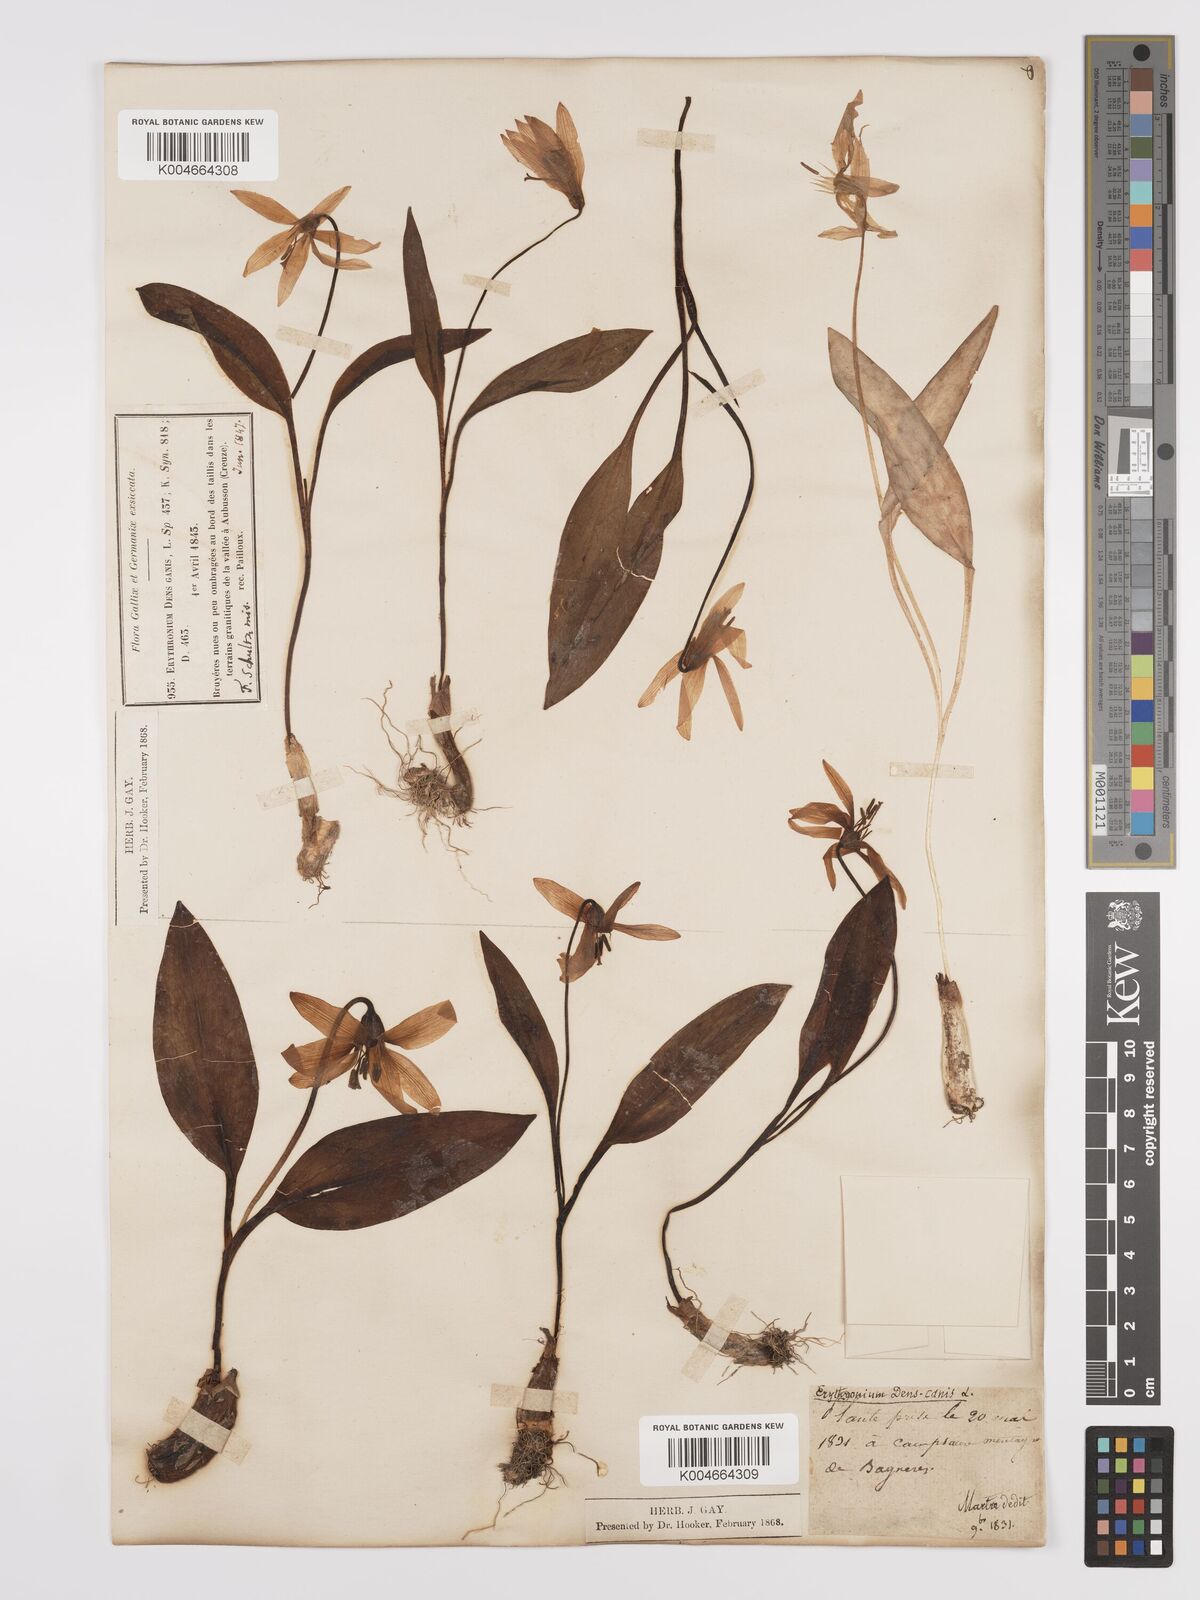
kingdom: Plantae
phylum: Tracheophyta
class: Liliopsida
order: Liliales
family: Liliaceae
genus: Erythronium
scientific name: Erythronium dens-canis
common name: Dog's-tooth-violet
